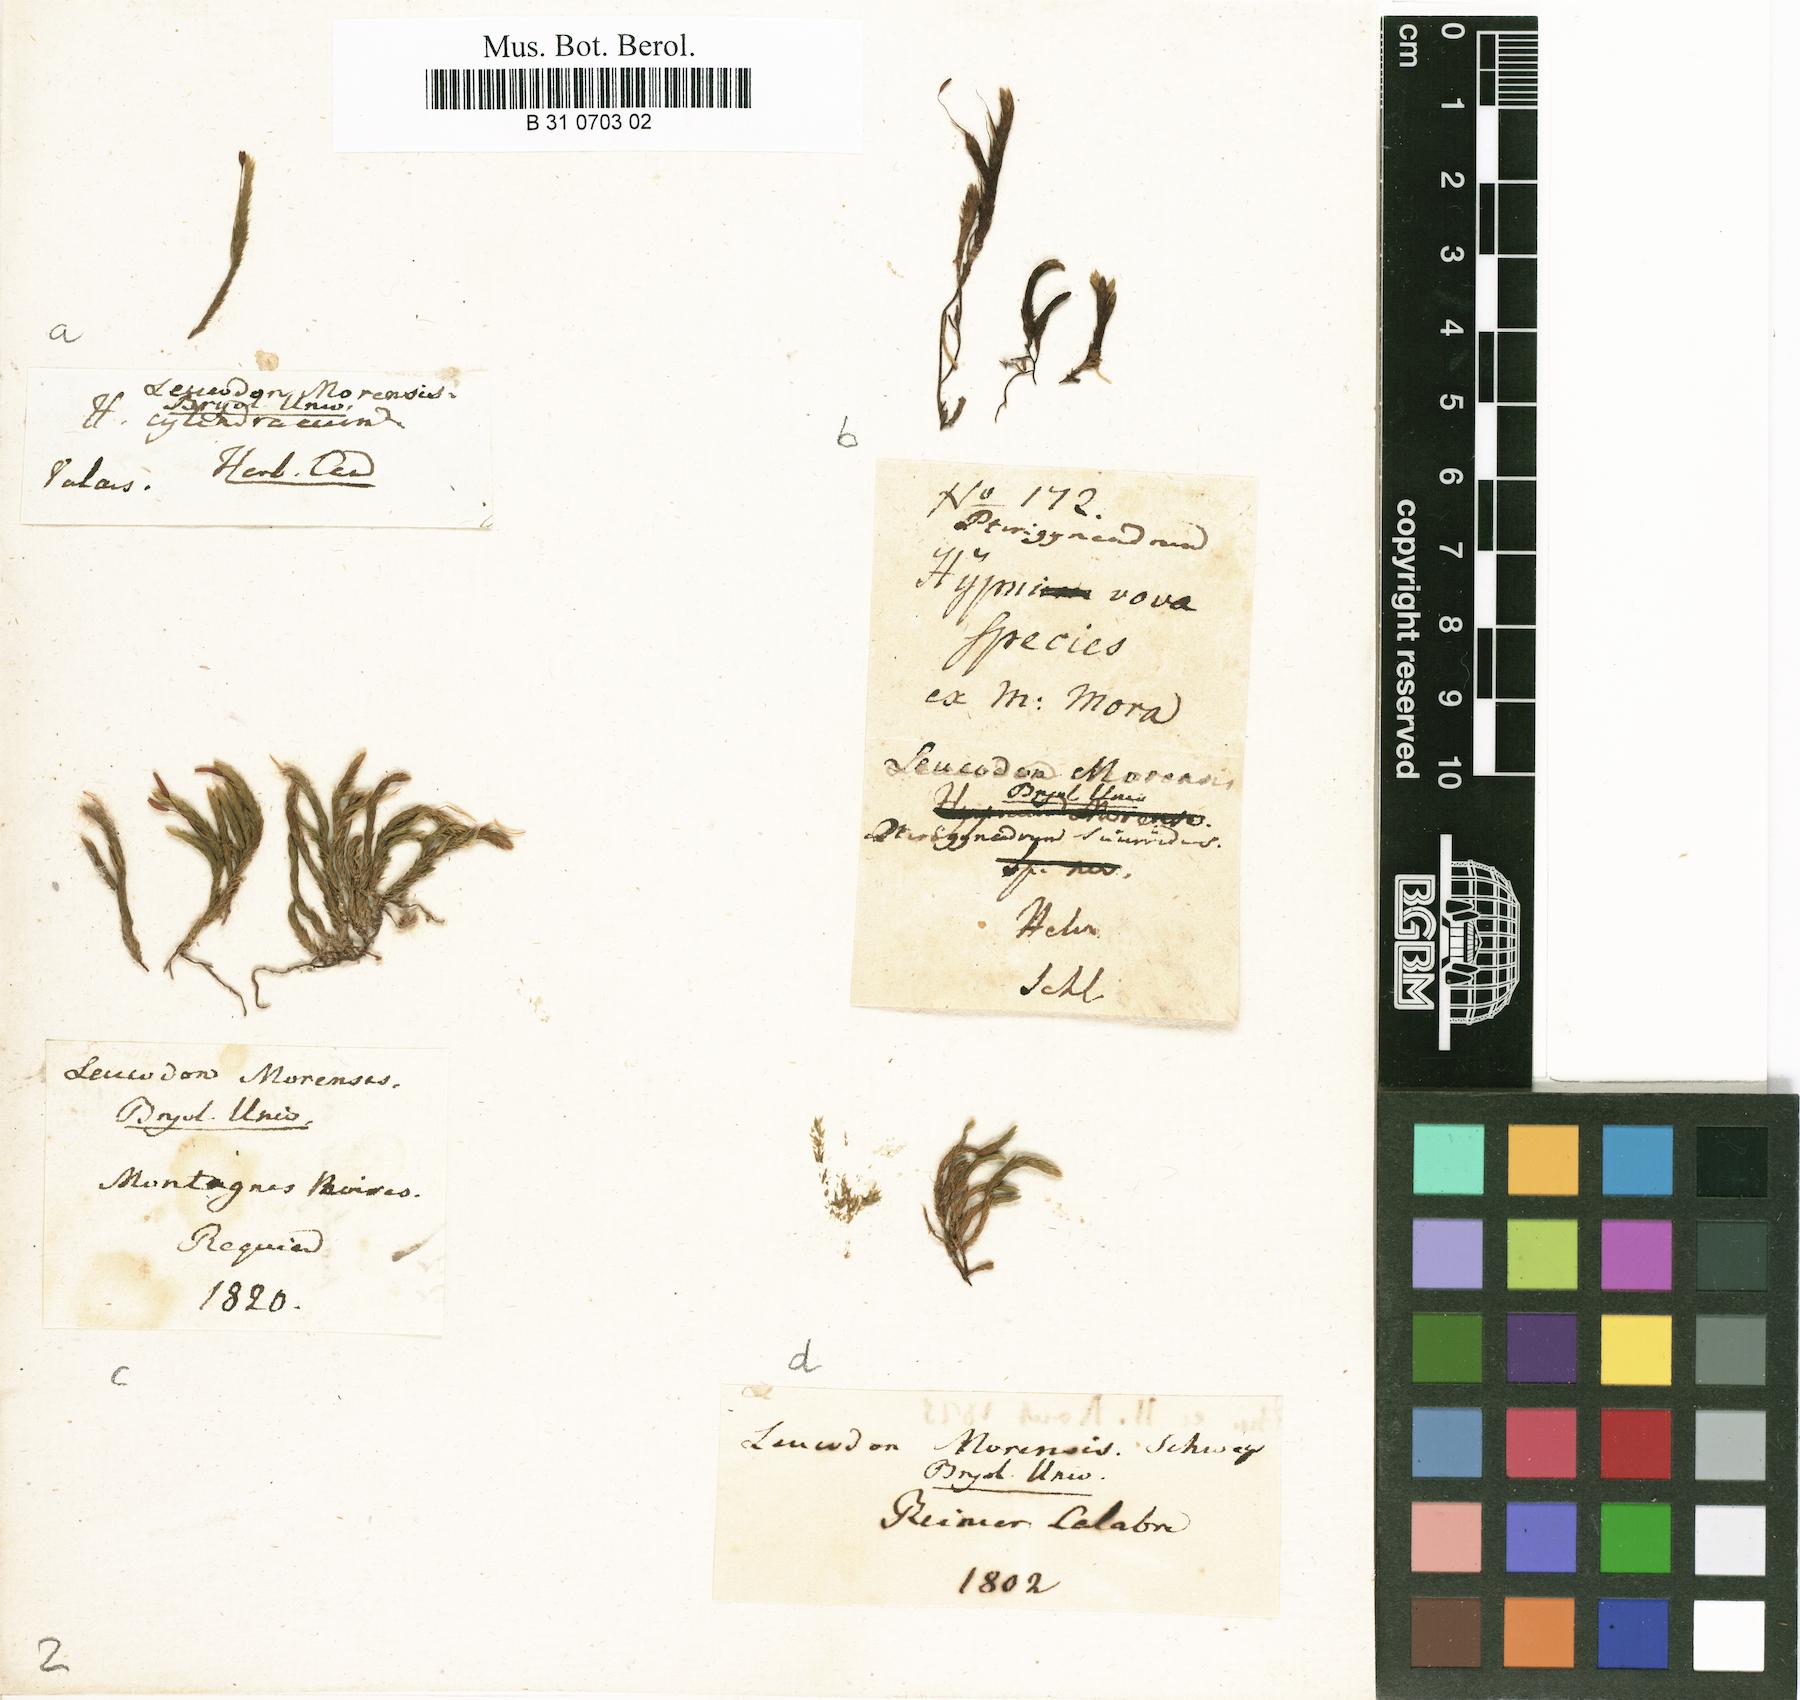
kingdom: Plantae
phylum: Bryophyta
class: Bryopsida
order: Hypnales
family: Leucodontaceae
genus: Leucodon
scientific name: Leucodon sciuroides
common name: Squirrel-tail moss
